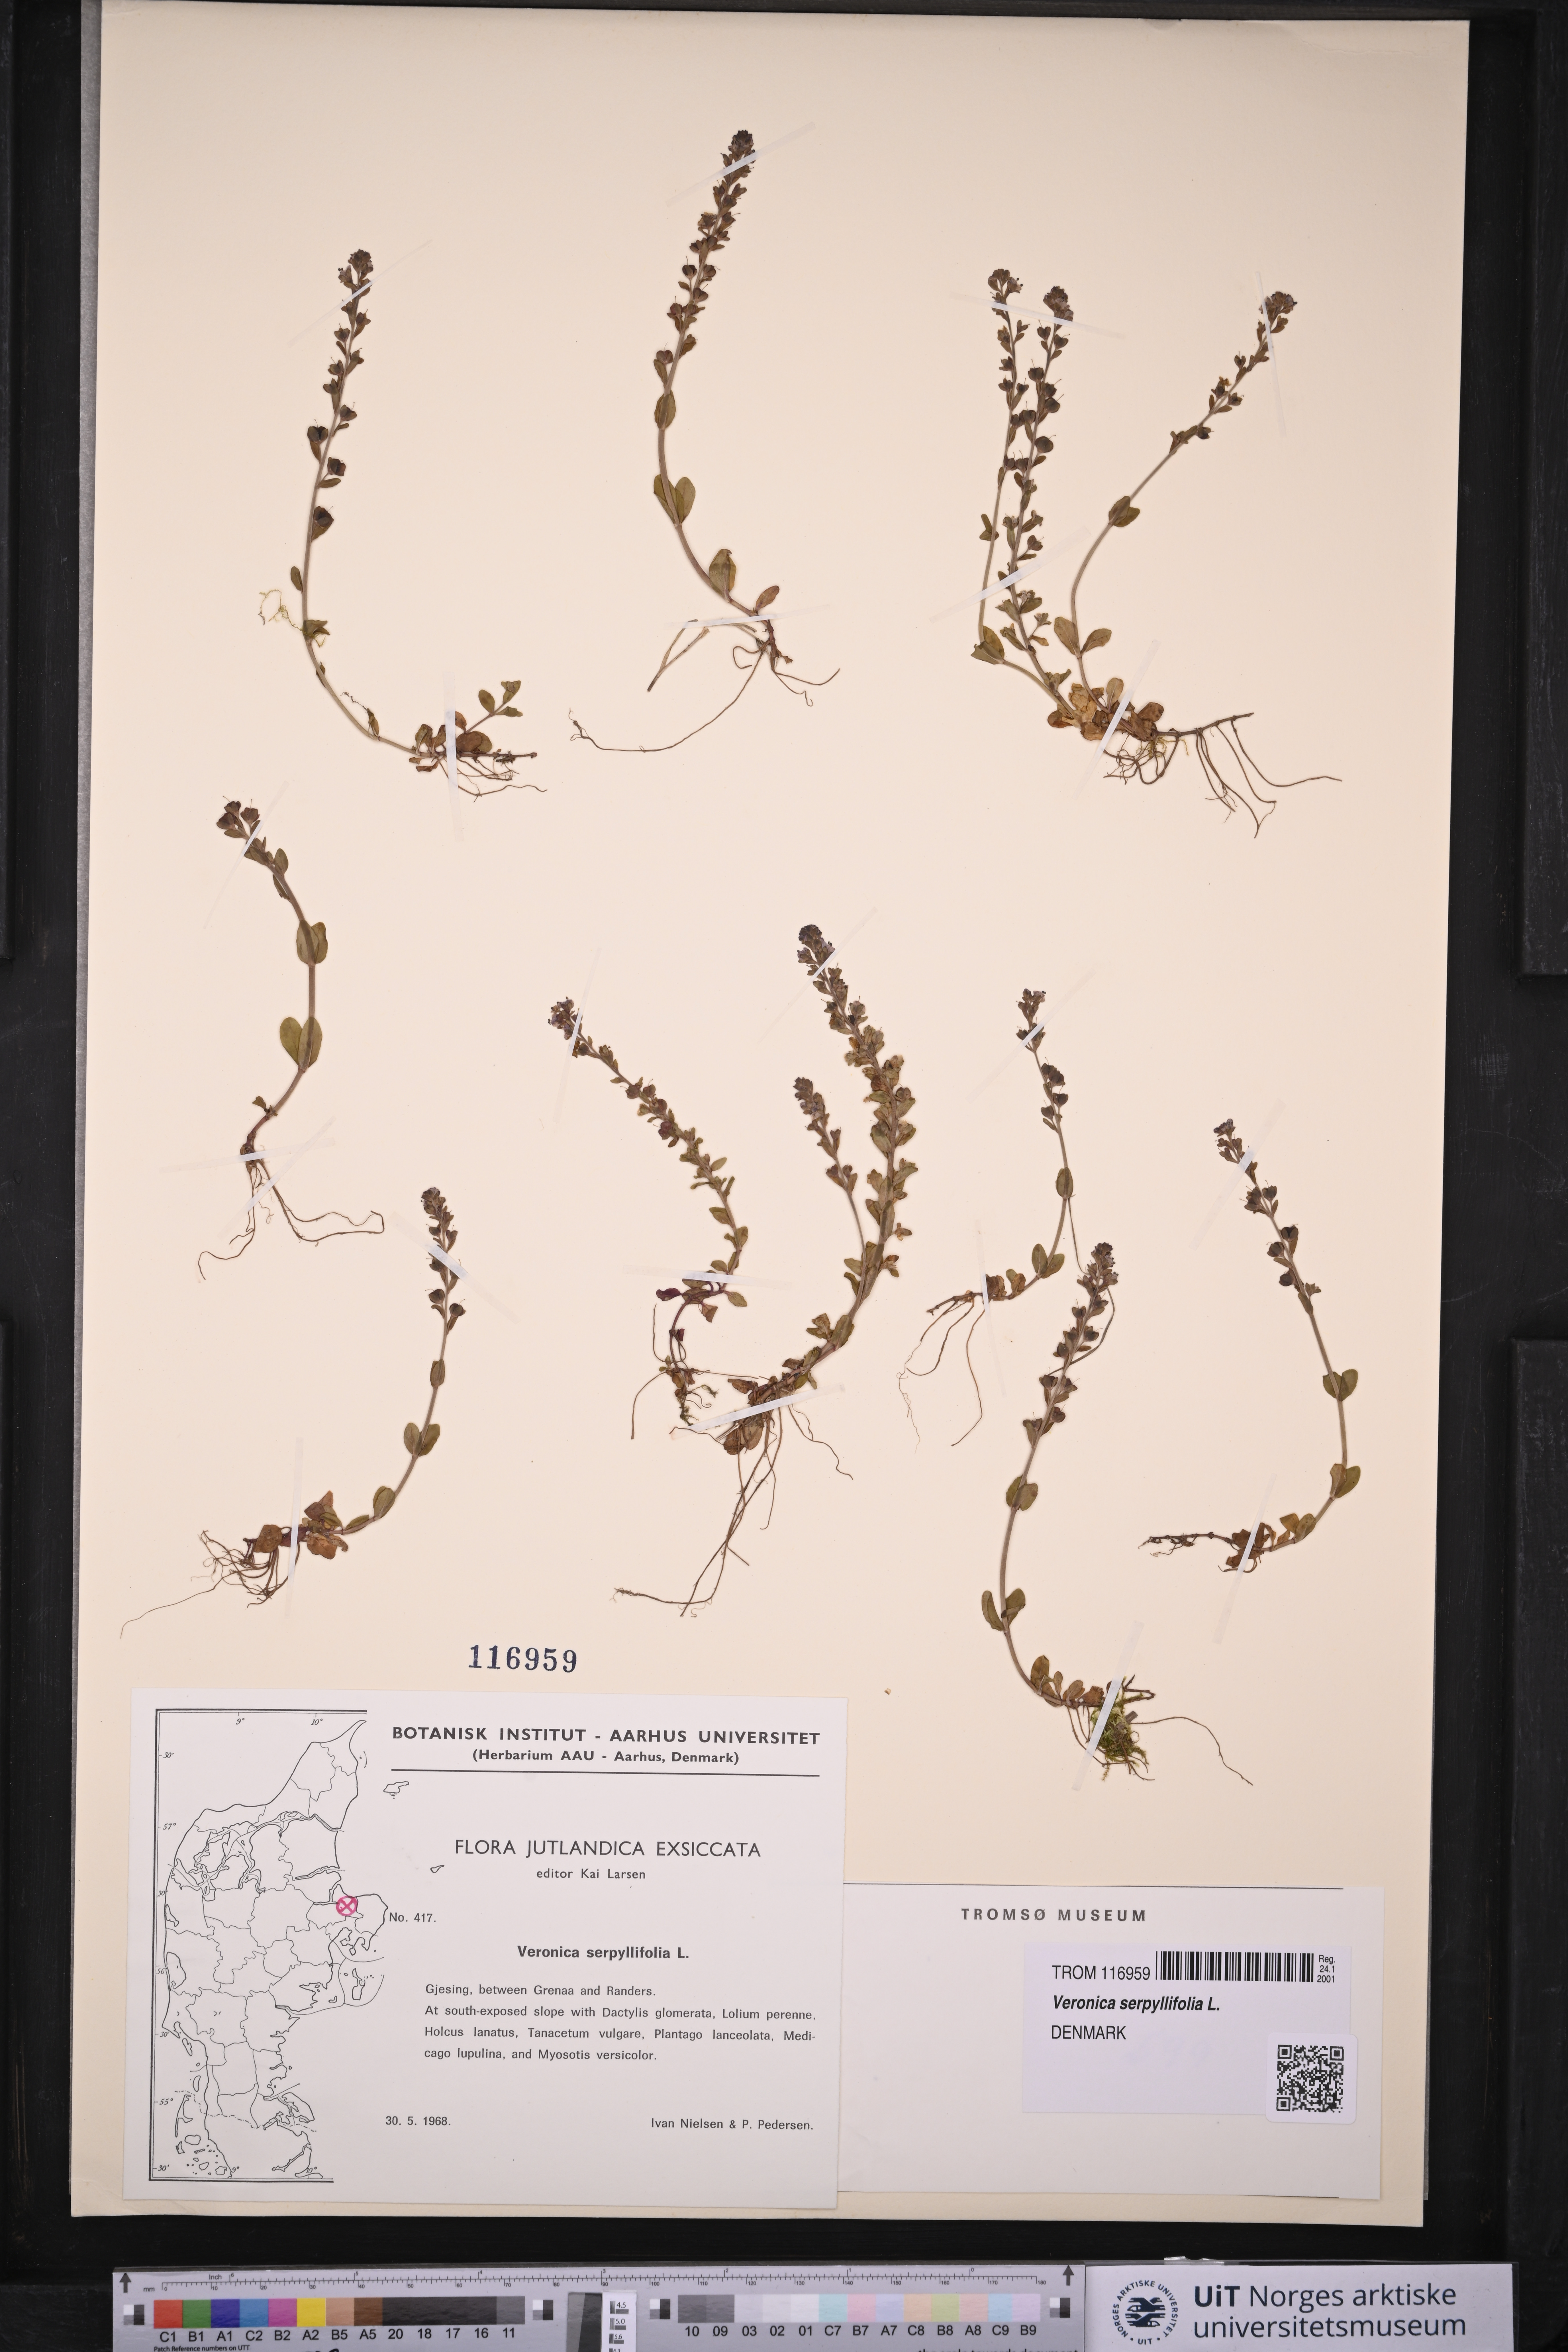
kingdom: Plantae
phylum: Tracheophyta
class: Magnoliopsida
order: Lamiales
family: Plantaginaceae
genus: Veronica
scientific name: Veronica serpyllifolia
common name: Thyme-leaved speedwell
